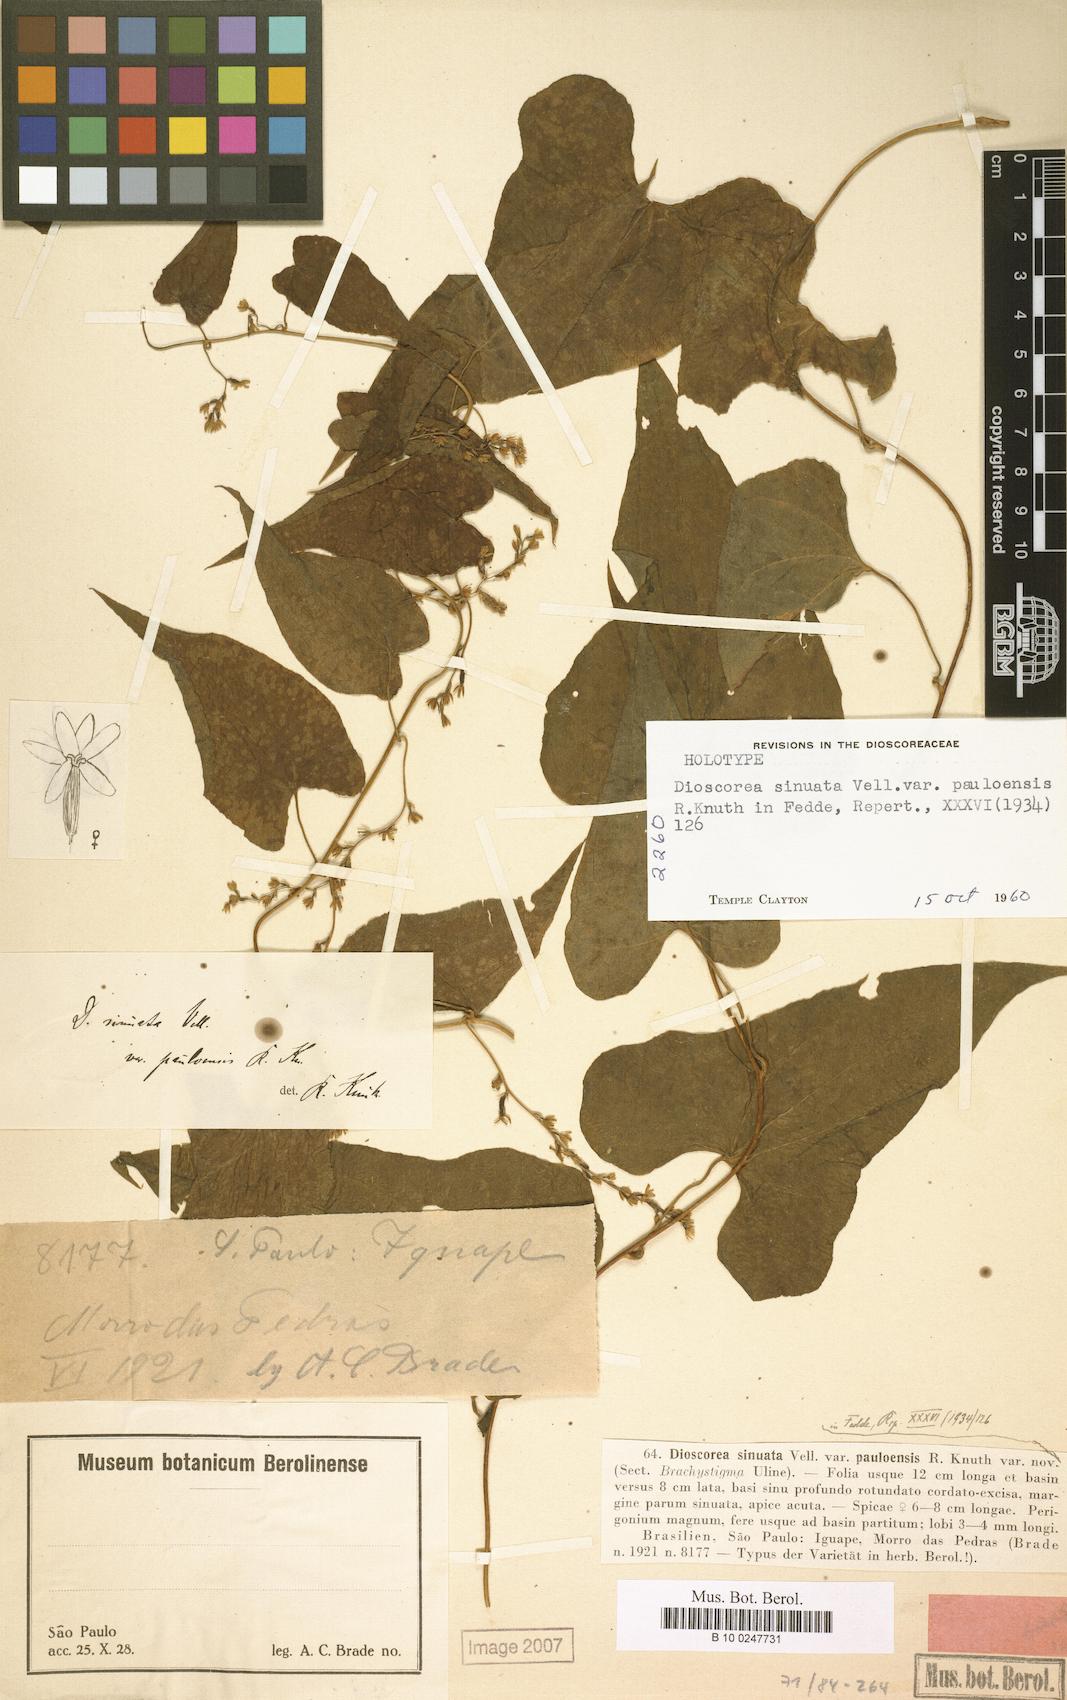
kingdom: Plantae
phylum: Tracheophyta
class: Liliopsida
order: Dioscoreales
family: Dioscoreaceae
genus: Dioscorea
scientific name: Dioscorea sinuata
